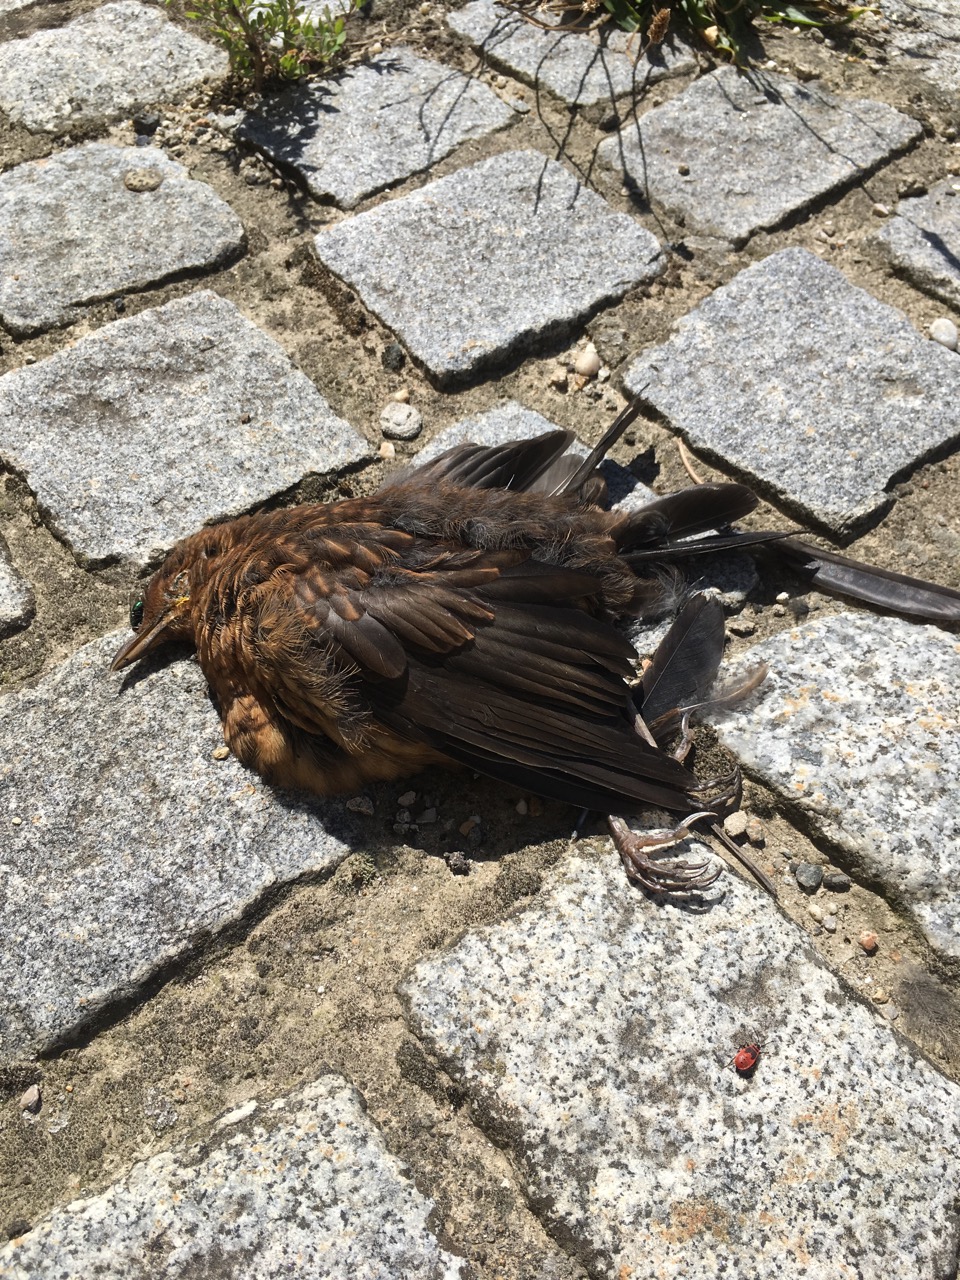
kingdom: Animalia
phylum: Chordata
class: Aves
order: Passeriformes
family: Turdidae
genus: Turdus
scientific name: Turdus merula
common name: Common blackbird
